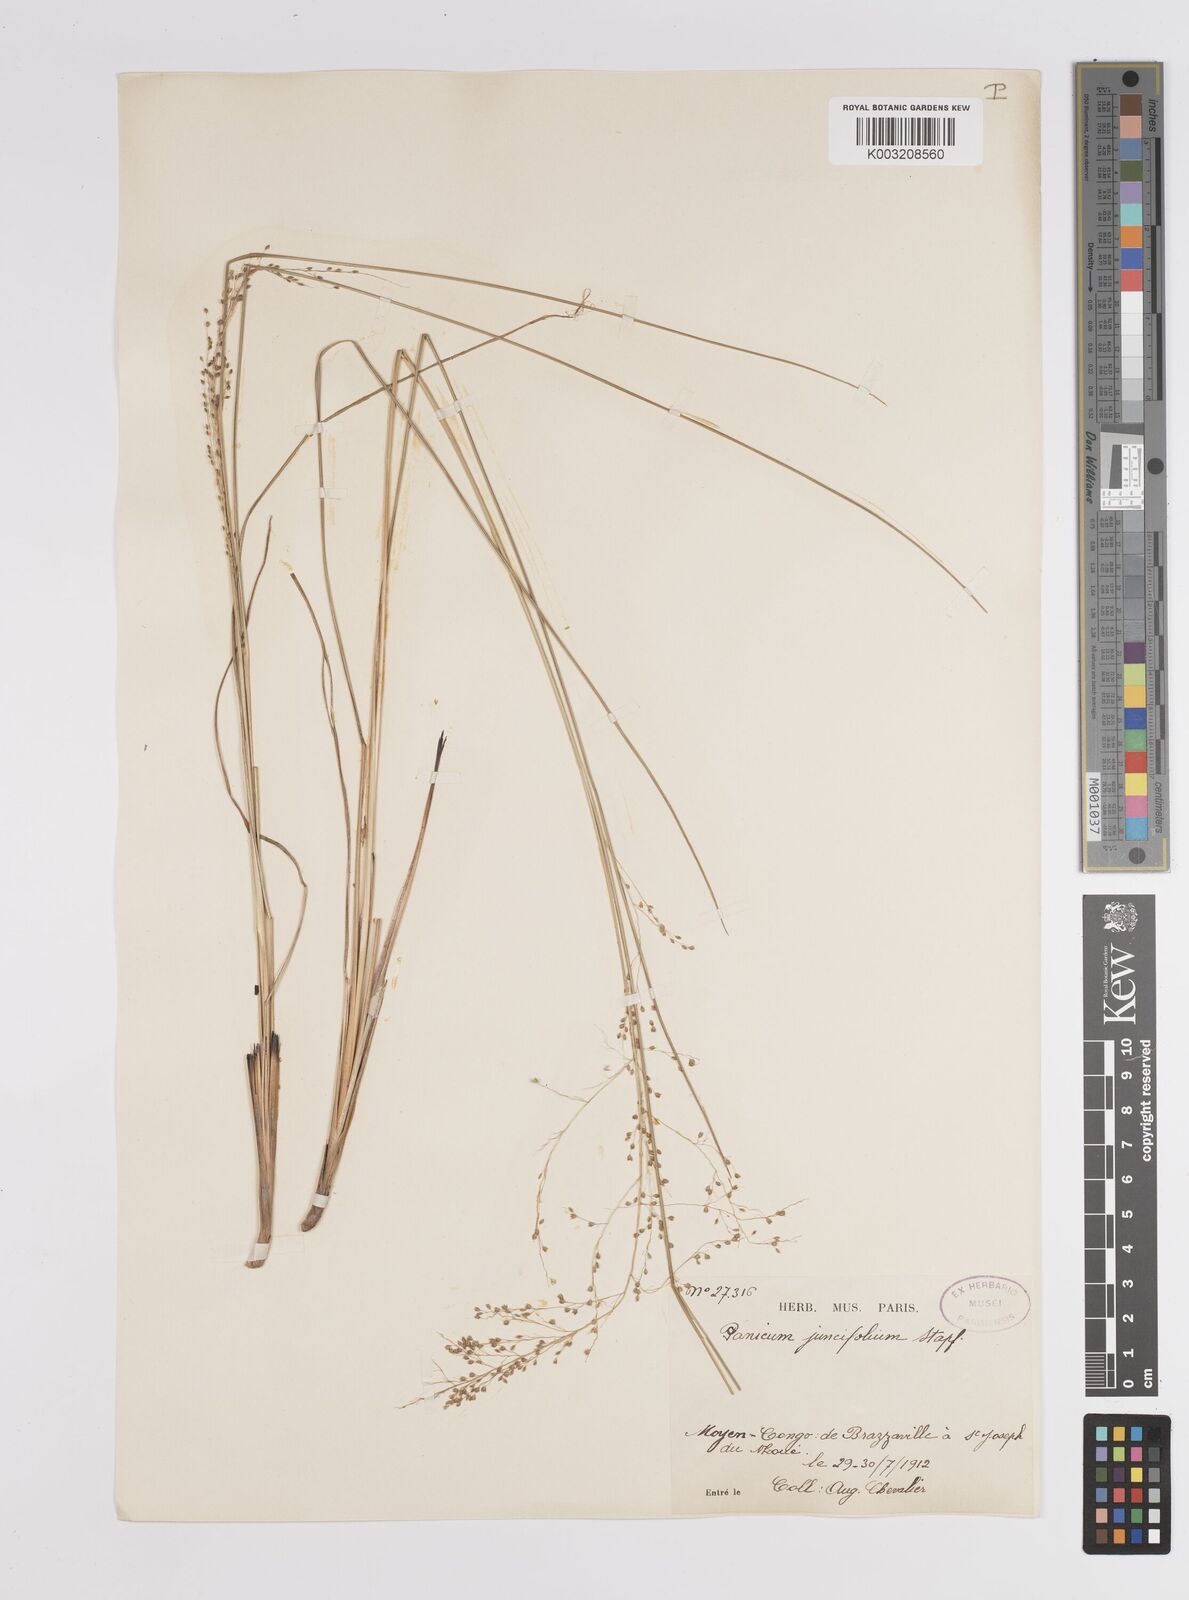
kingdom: Plantae
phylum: Tracheophyta
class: Liliopsida
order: Poales
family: Poaceae
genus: Trichanthecium
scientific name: Trichanthecium natalense
